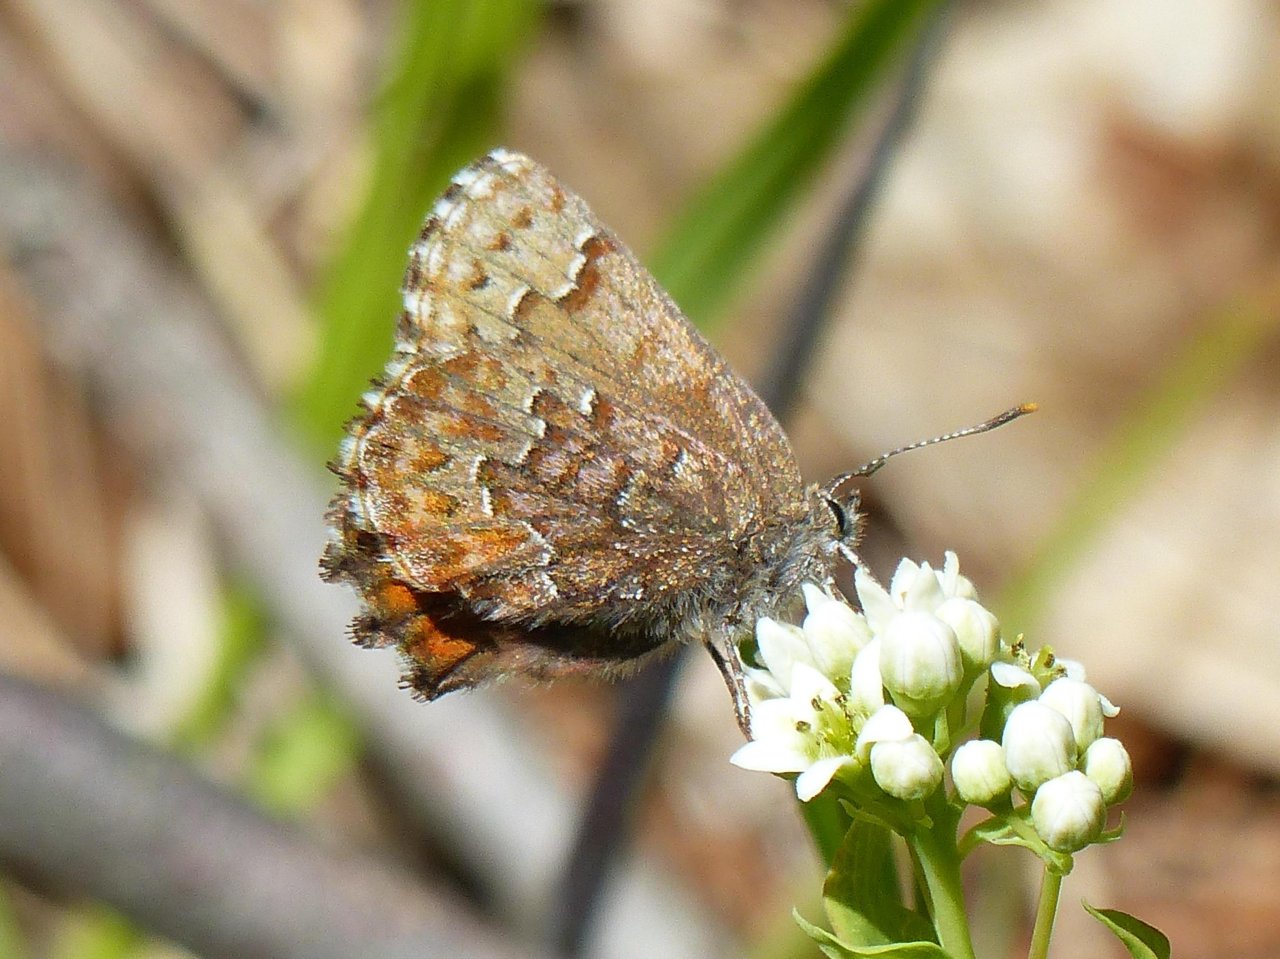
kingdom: Animalia
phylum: Arthropoda
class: Insecta
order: Lepidoptera
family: Lycaenidae
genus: Incisalia
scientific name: Incisalia niphon
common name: Eastern Pine Elfin
